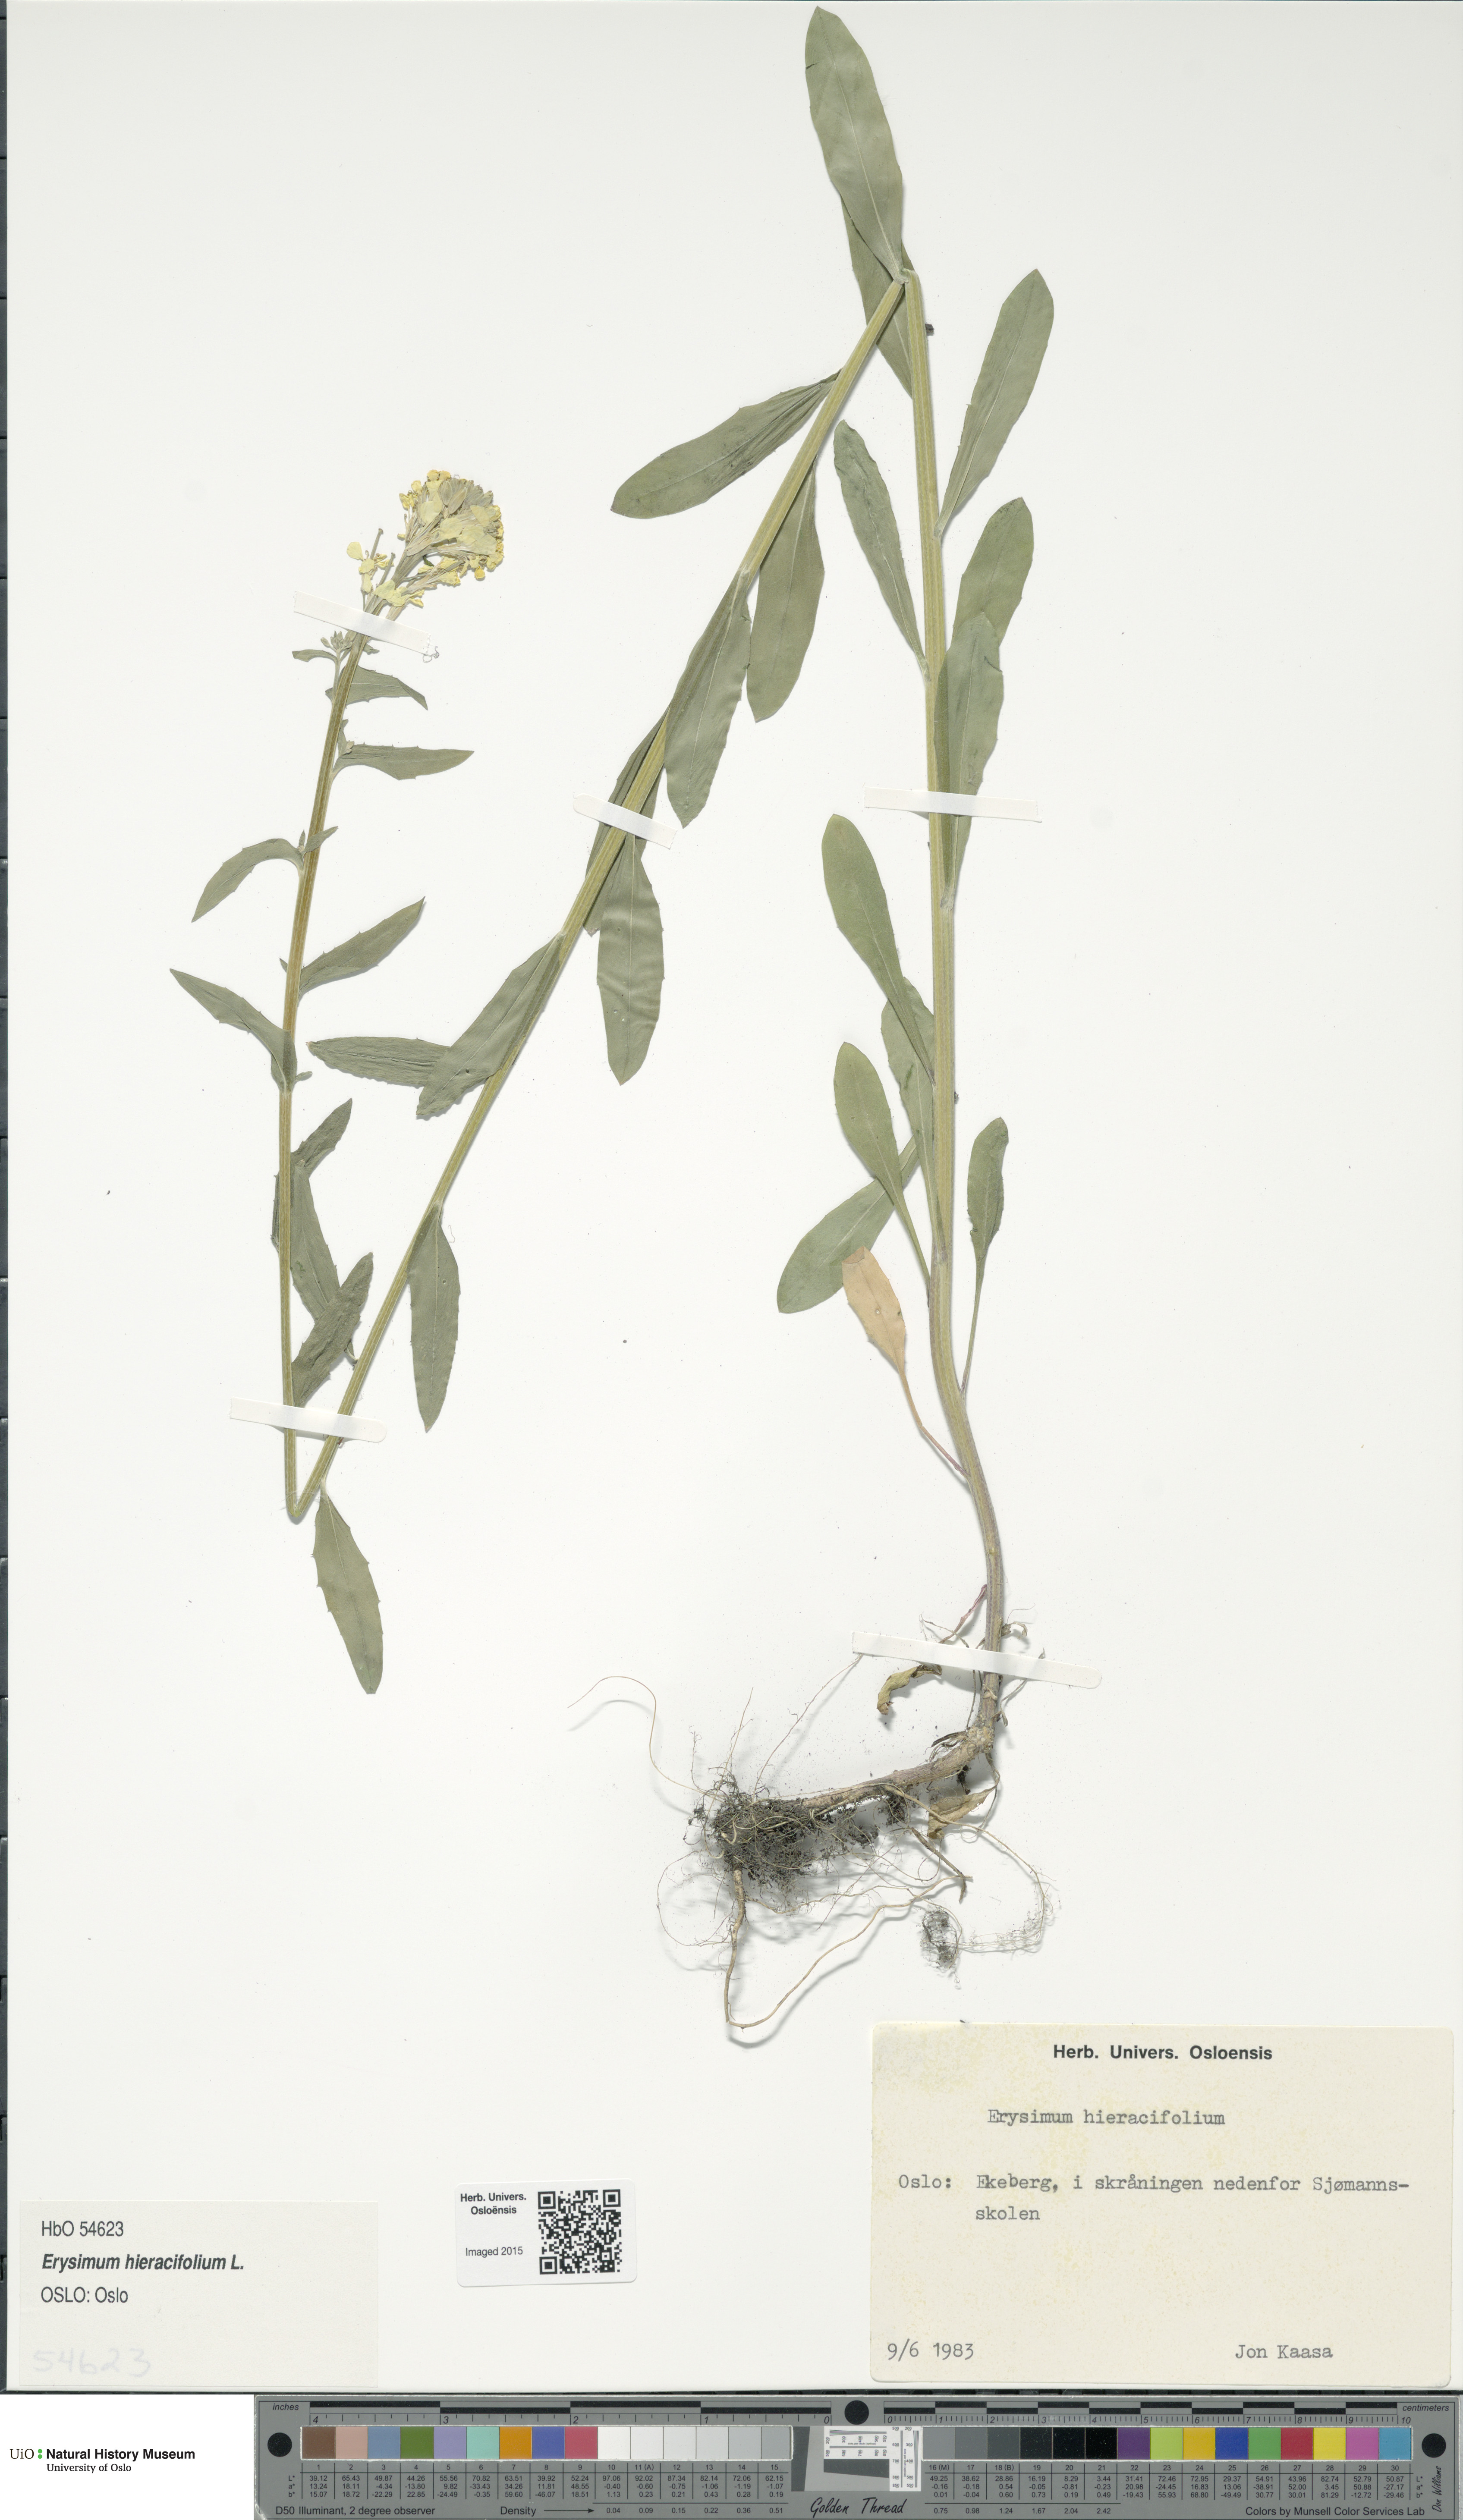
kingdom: Plantae
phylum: Tracheophyta
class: Magnoliopsida
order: Brassicales
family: Brassicaceae
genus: Erysimum
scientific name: Erysimum hieraciifolium
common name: European wallflower
